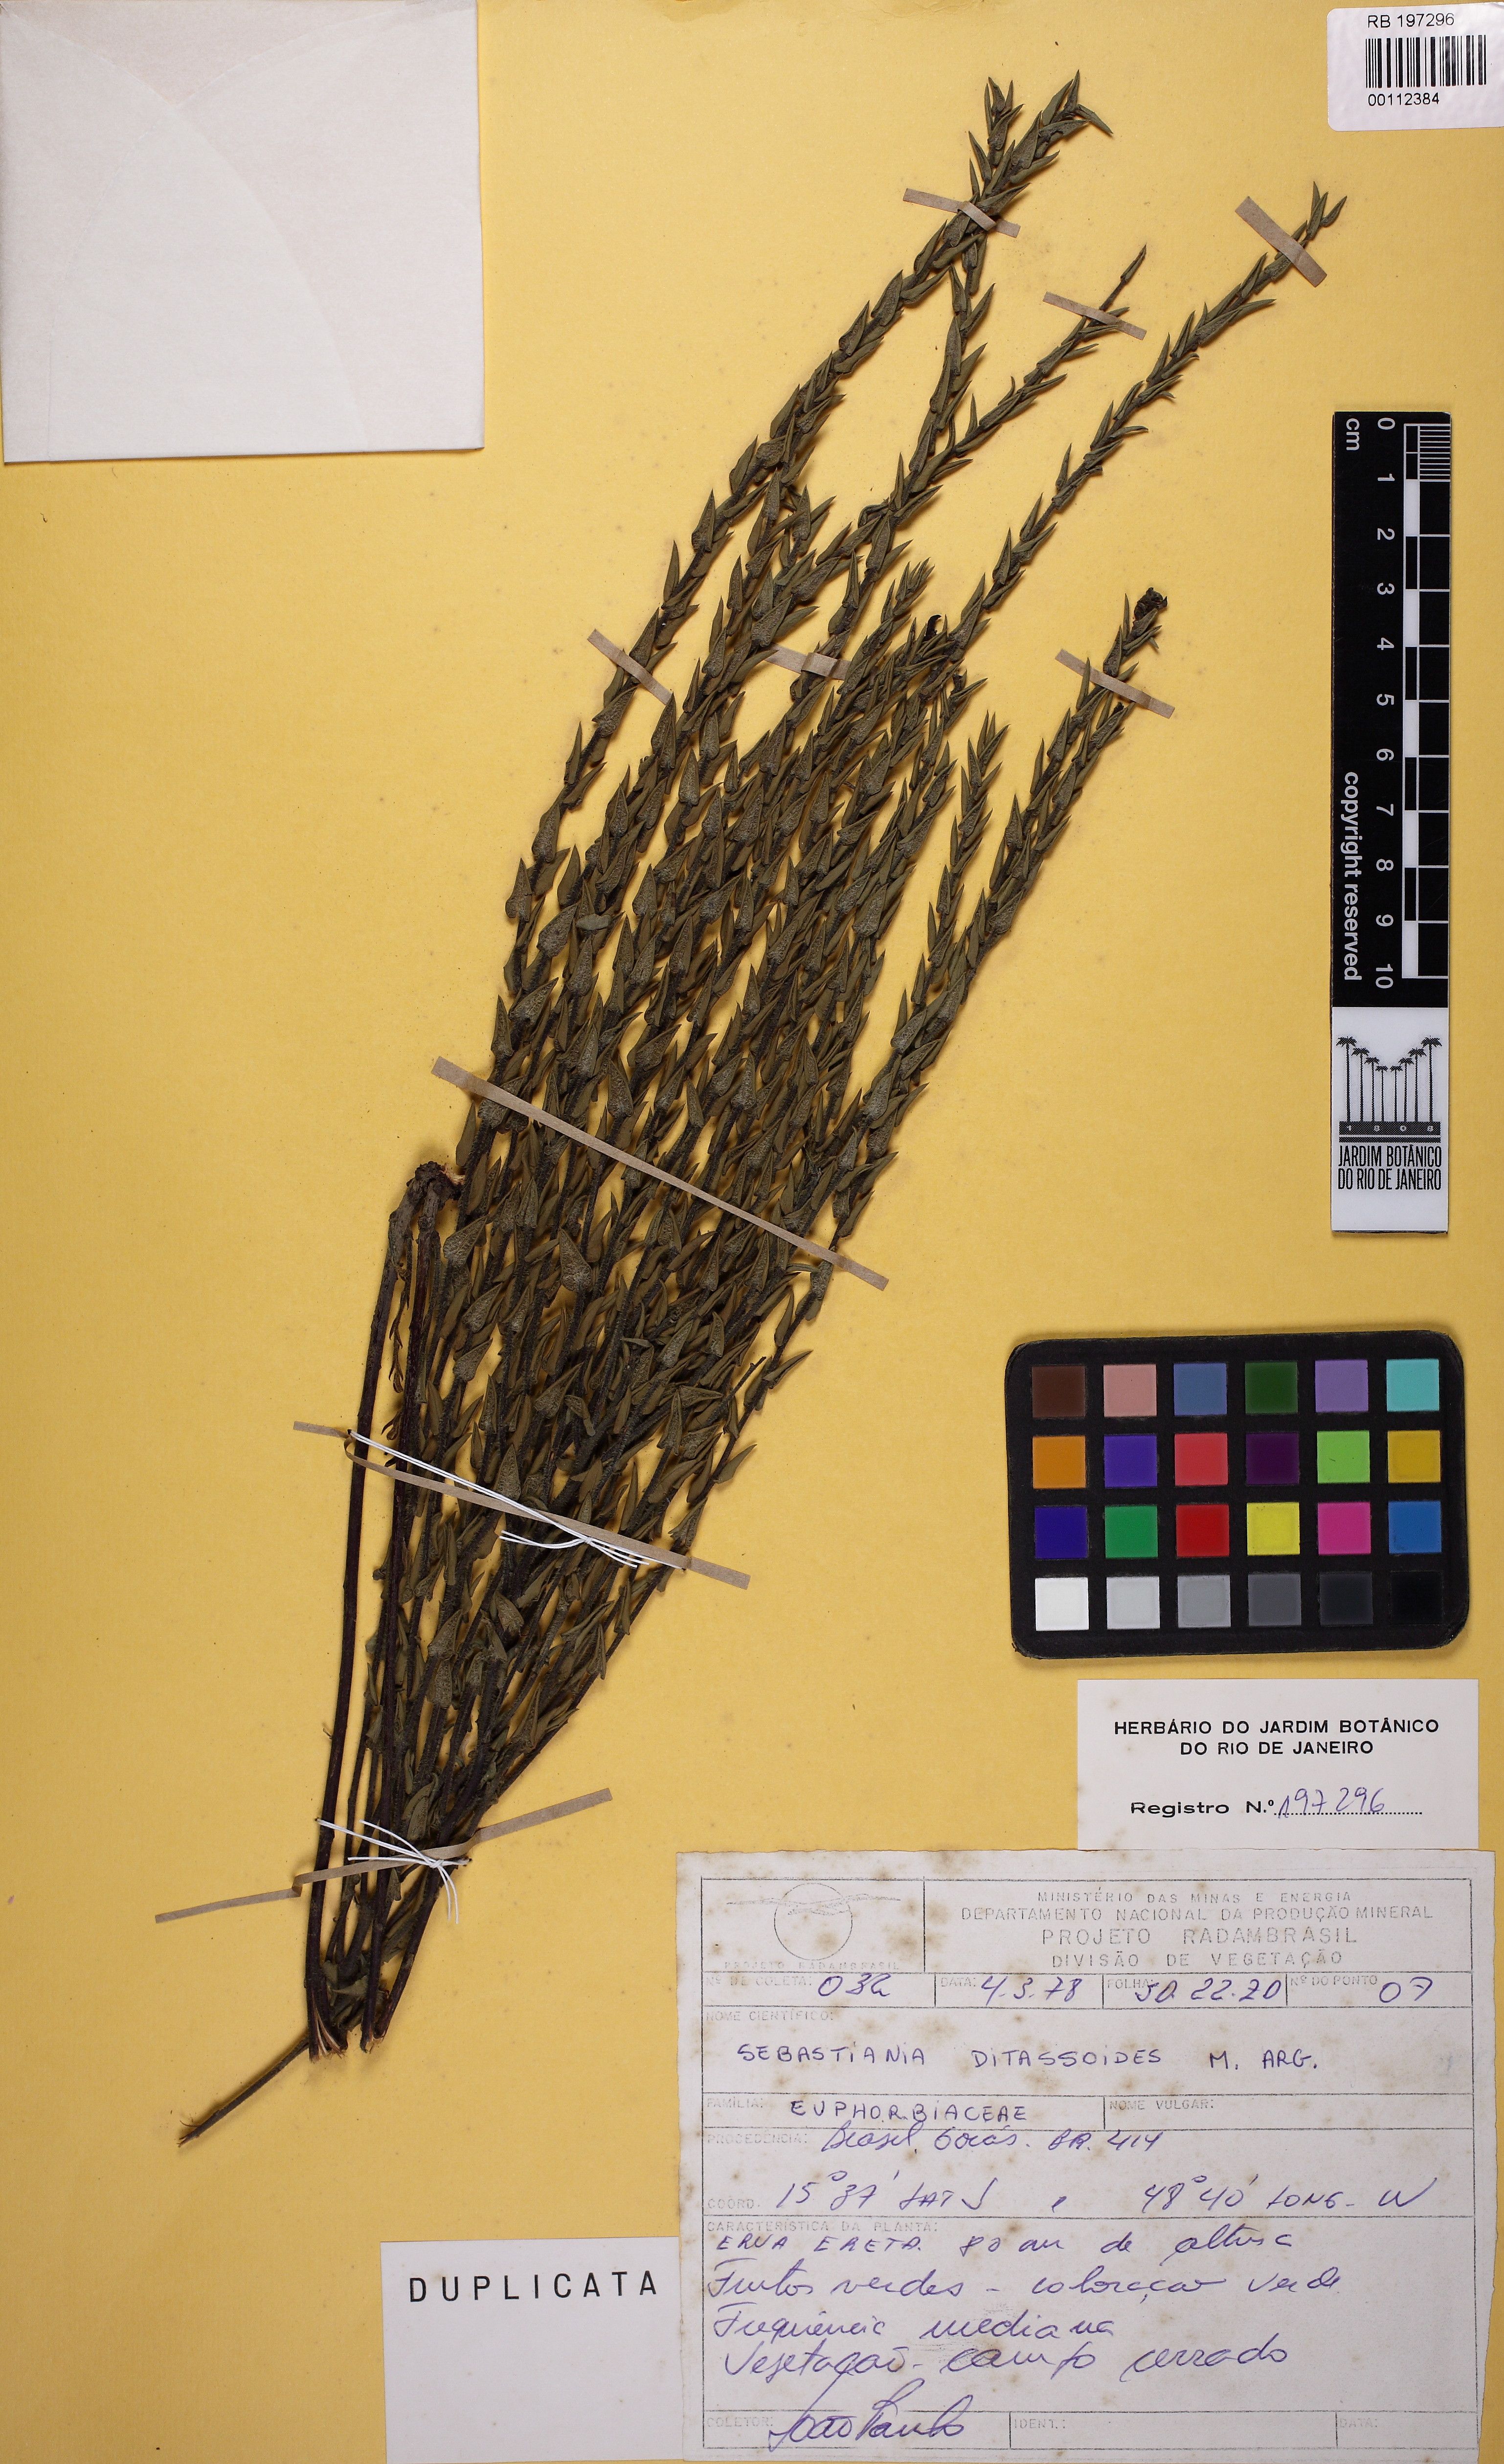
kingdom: Plantae
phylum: Tracheophyta
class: Magnoliopsida
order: Malpighiales
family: Euphorbiaceae
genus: Microstachys
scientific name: Microstachys ditassoides
